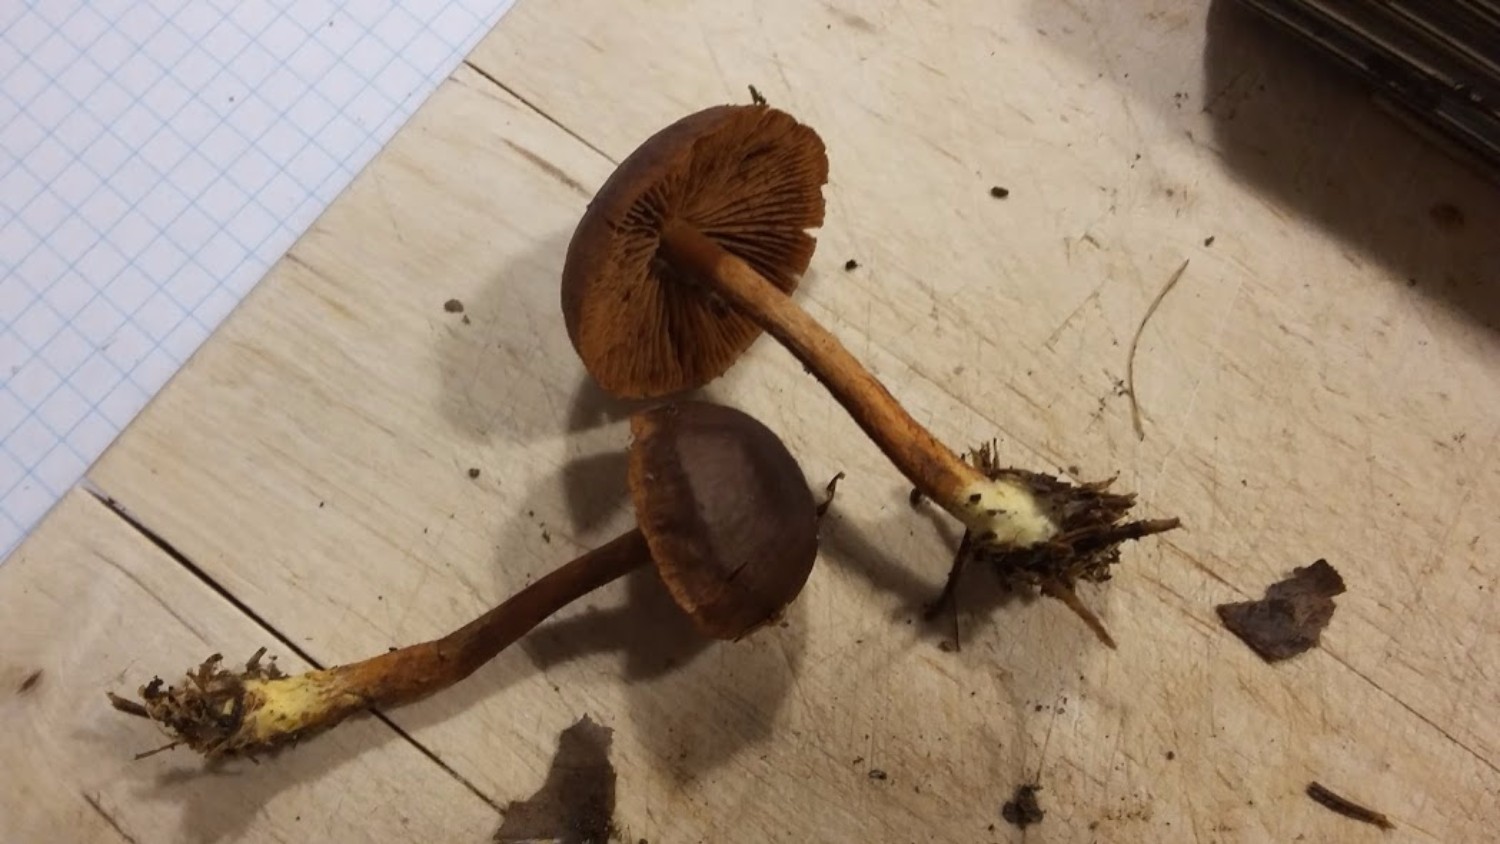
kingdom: Fungi
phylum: Basidiomycota
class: Agaricomycetes
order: Agaricales
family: Cortinariaceae
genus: Cortinarius
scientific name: Cortinarius
